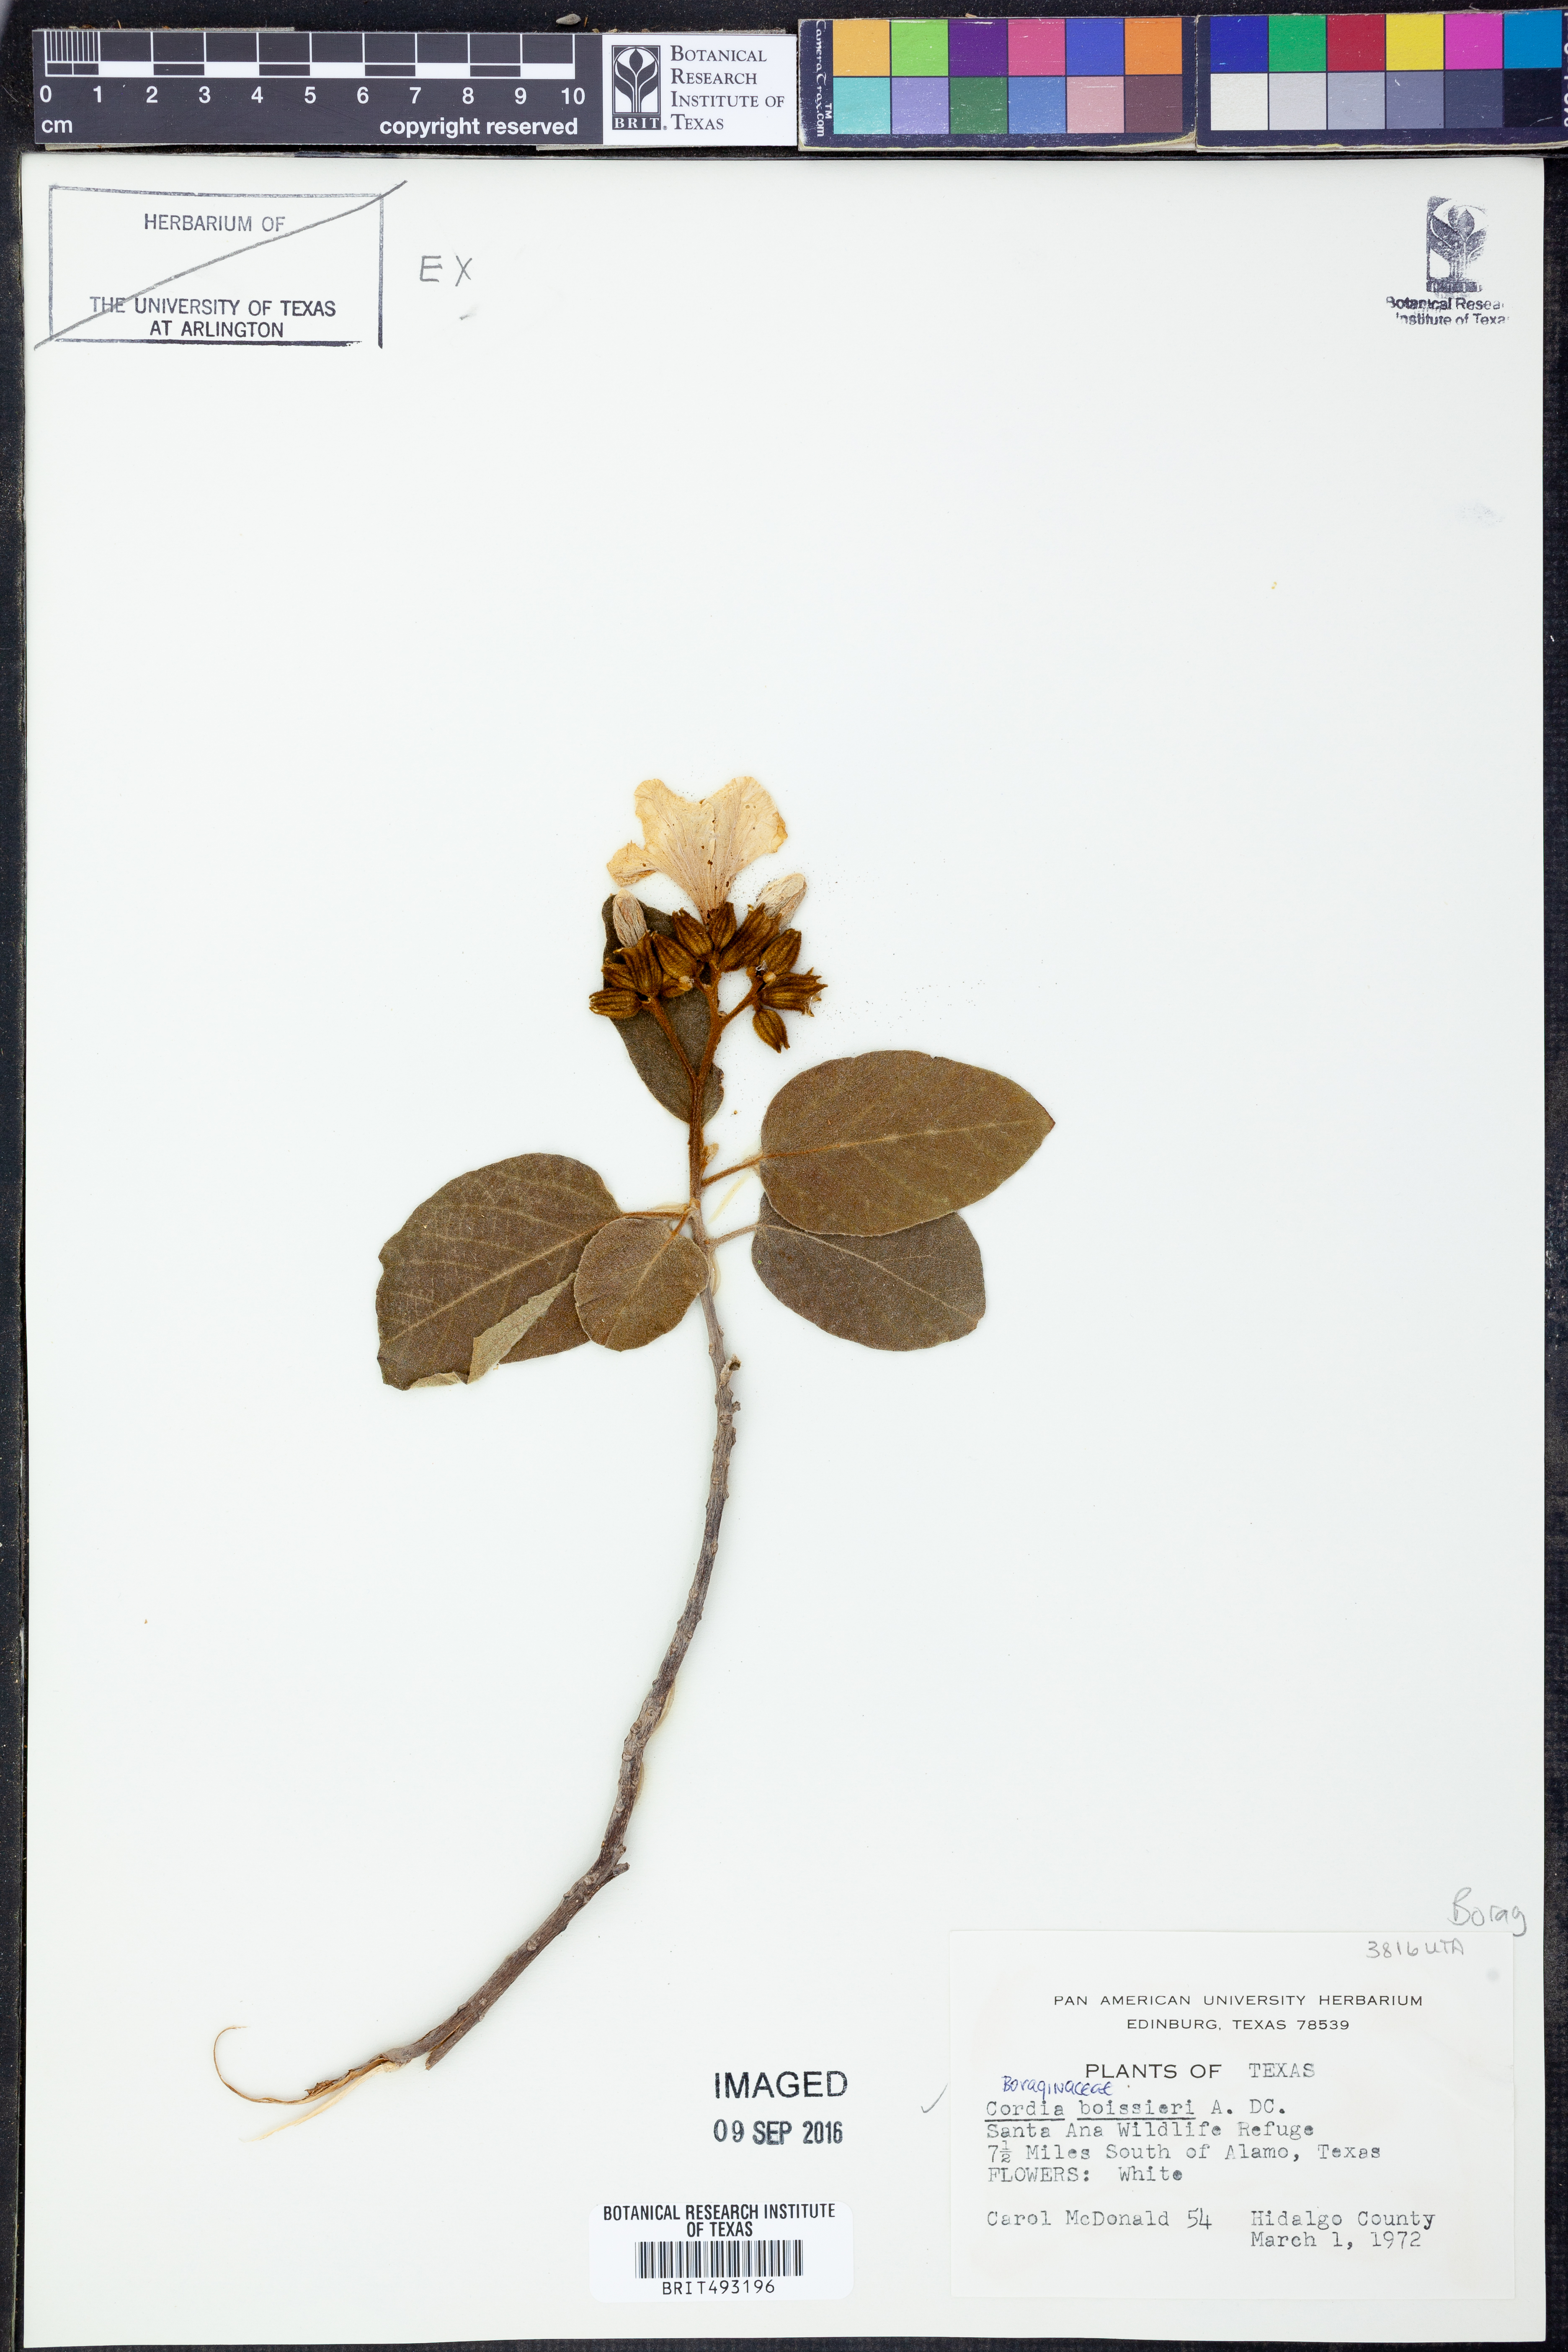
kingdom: Plantae
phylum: Tracheophyta
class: Magnoliopsida
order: Boraginales
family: Cordiaceae
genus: Cordia
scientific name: Cordia boissieri
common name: Mexican-olive
